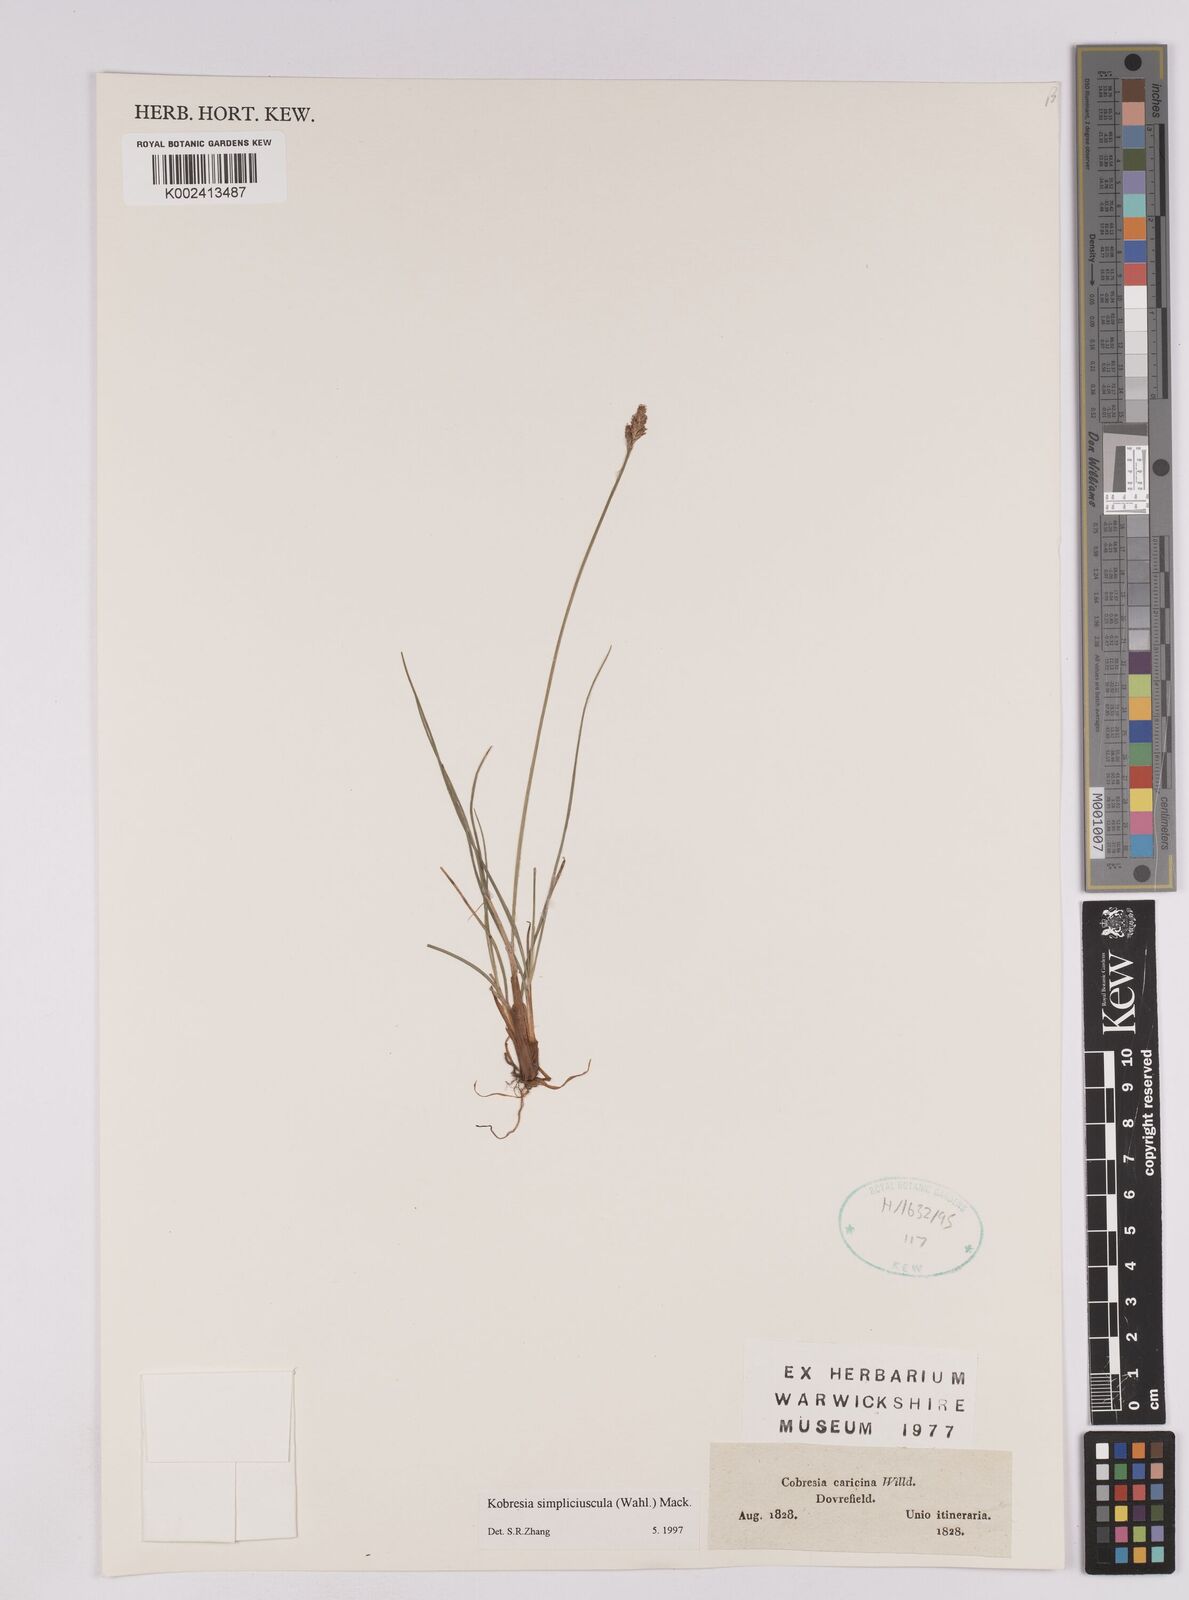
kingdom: Plantae
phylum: Tracheophyta
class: Liliopsida
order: Poales
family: Cyperaceae
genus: Carex
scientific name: Carex simpliciuscula
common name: Simple bog sedge
